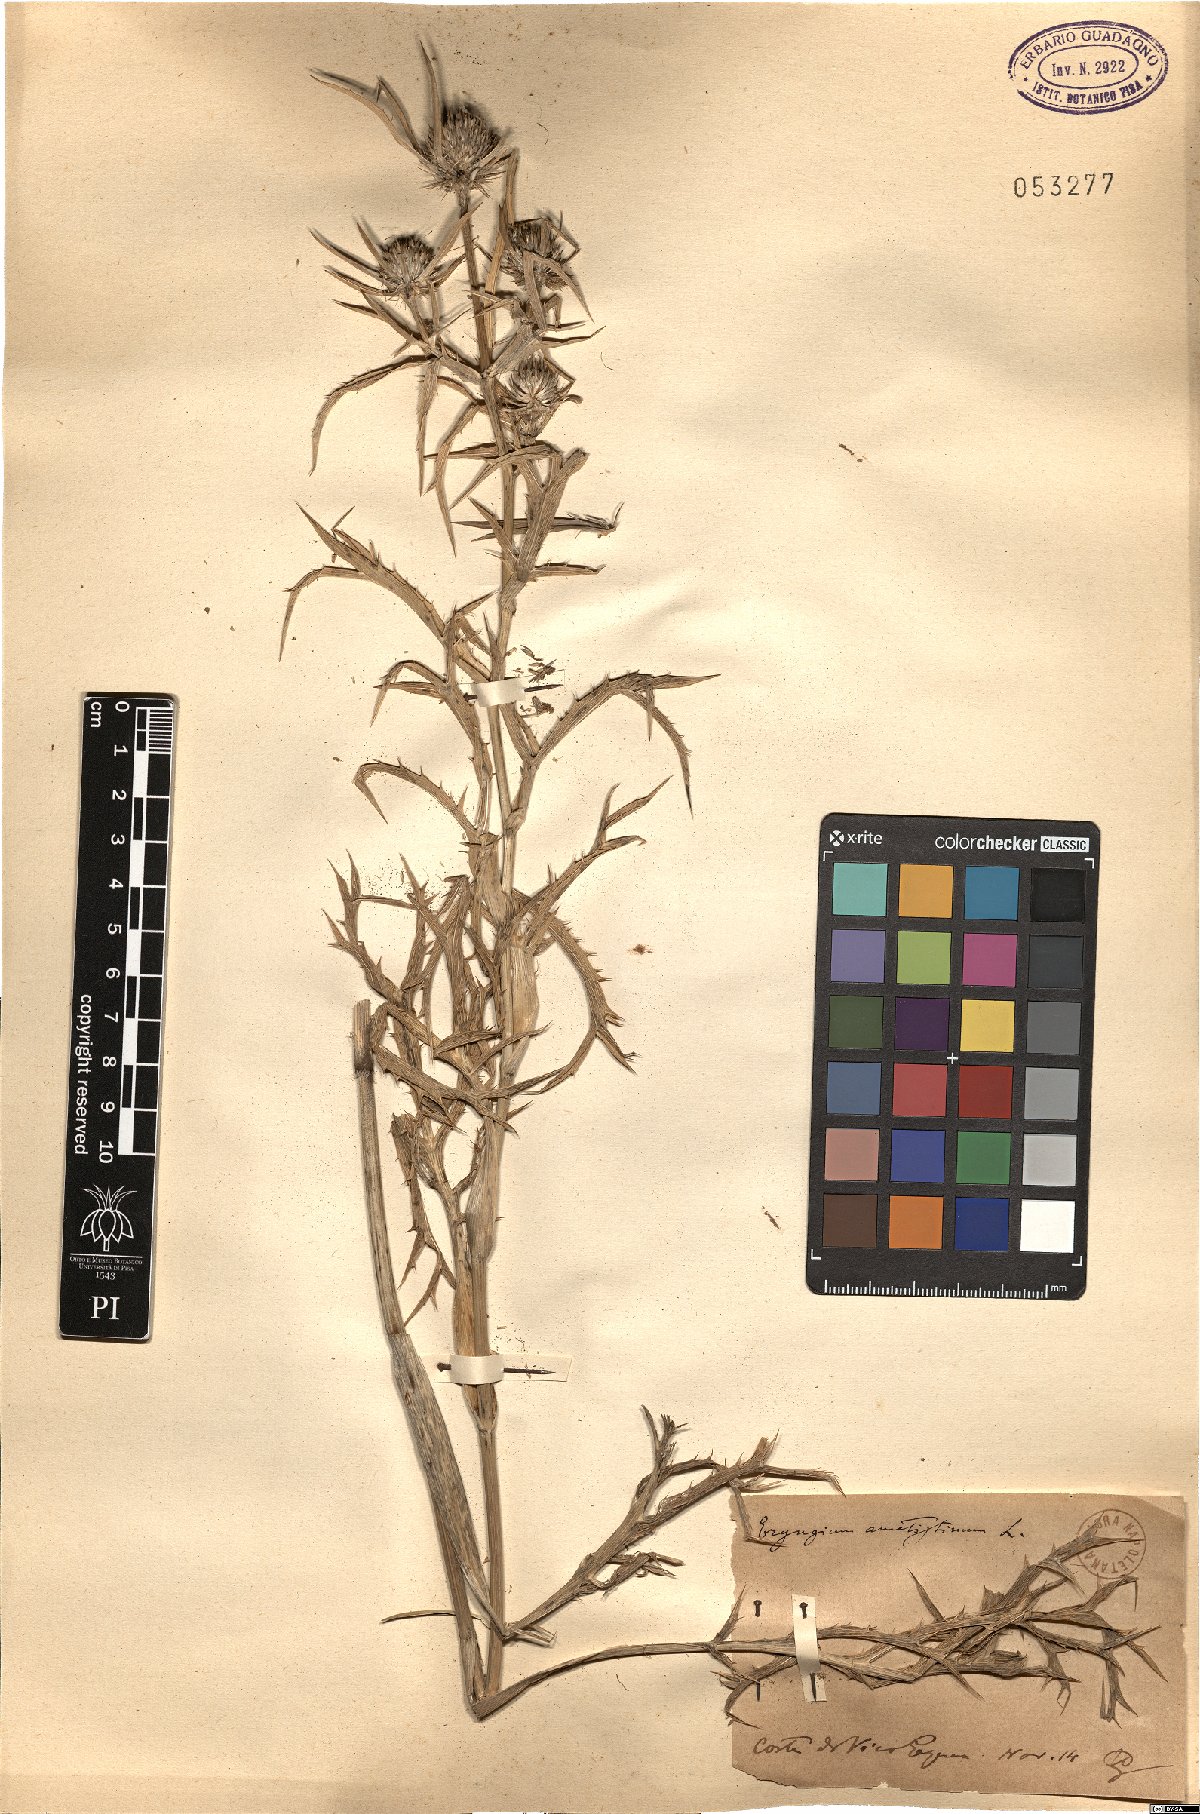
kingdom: Plantae
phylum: Tracheophyta
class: Magnoliopsida
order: Apiales
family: Apiaceae
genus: Eryngium
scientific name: Eryngium amethystinum
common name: Amethyst eryngo
